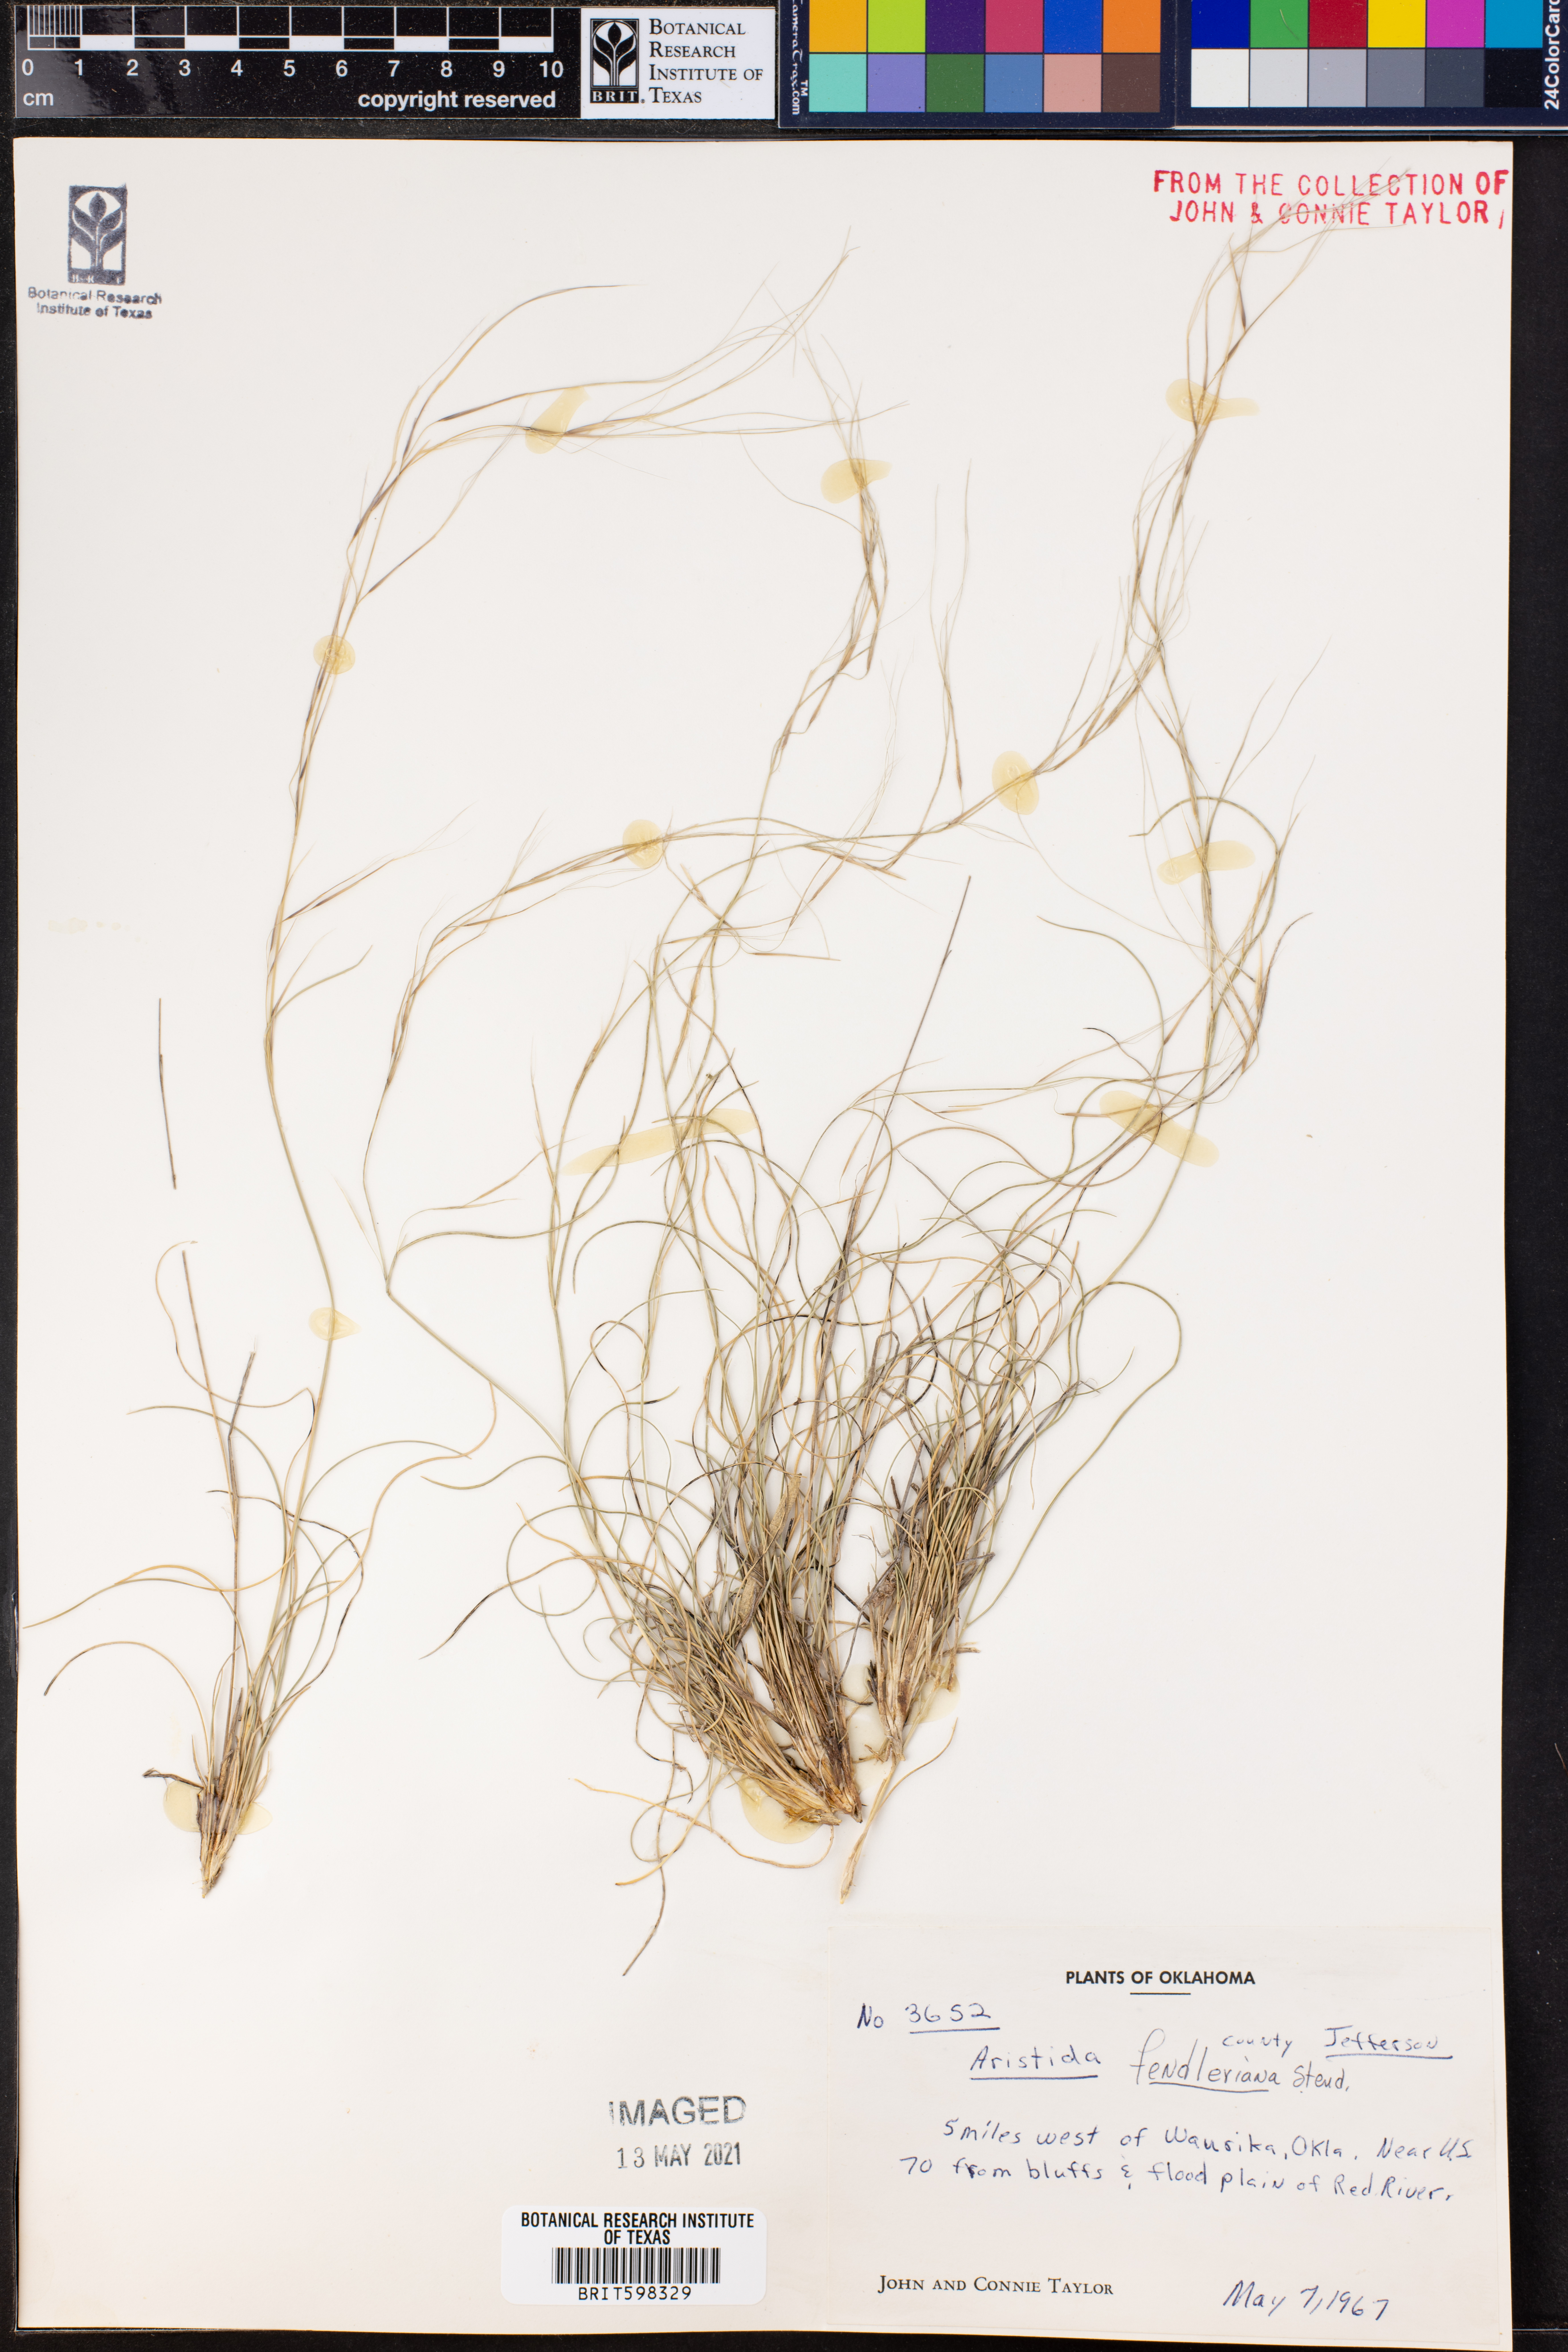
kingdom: Plantae
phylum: Tracheophyta
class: Liliopsida
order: Poales
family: Poaceae
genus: Aristida
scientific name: Aristida fendleriana
